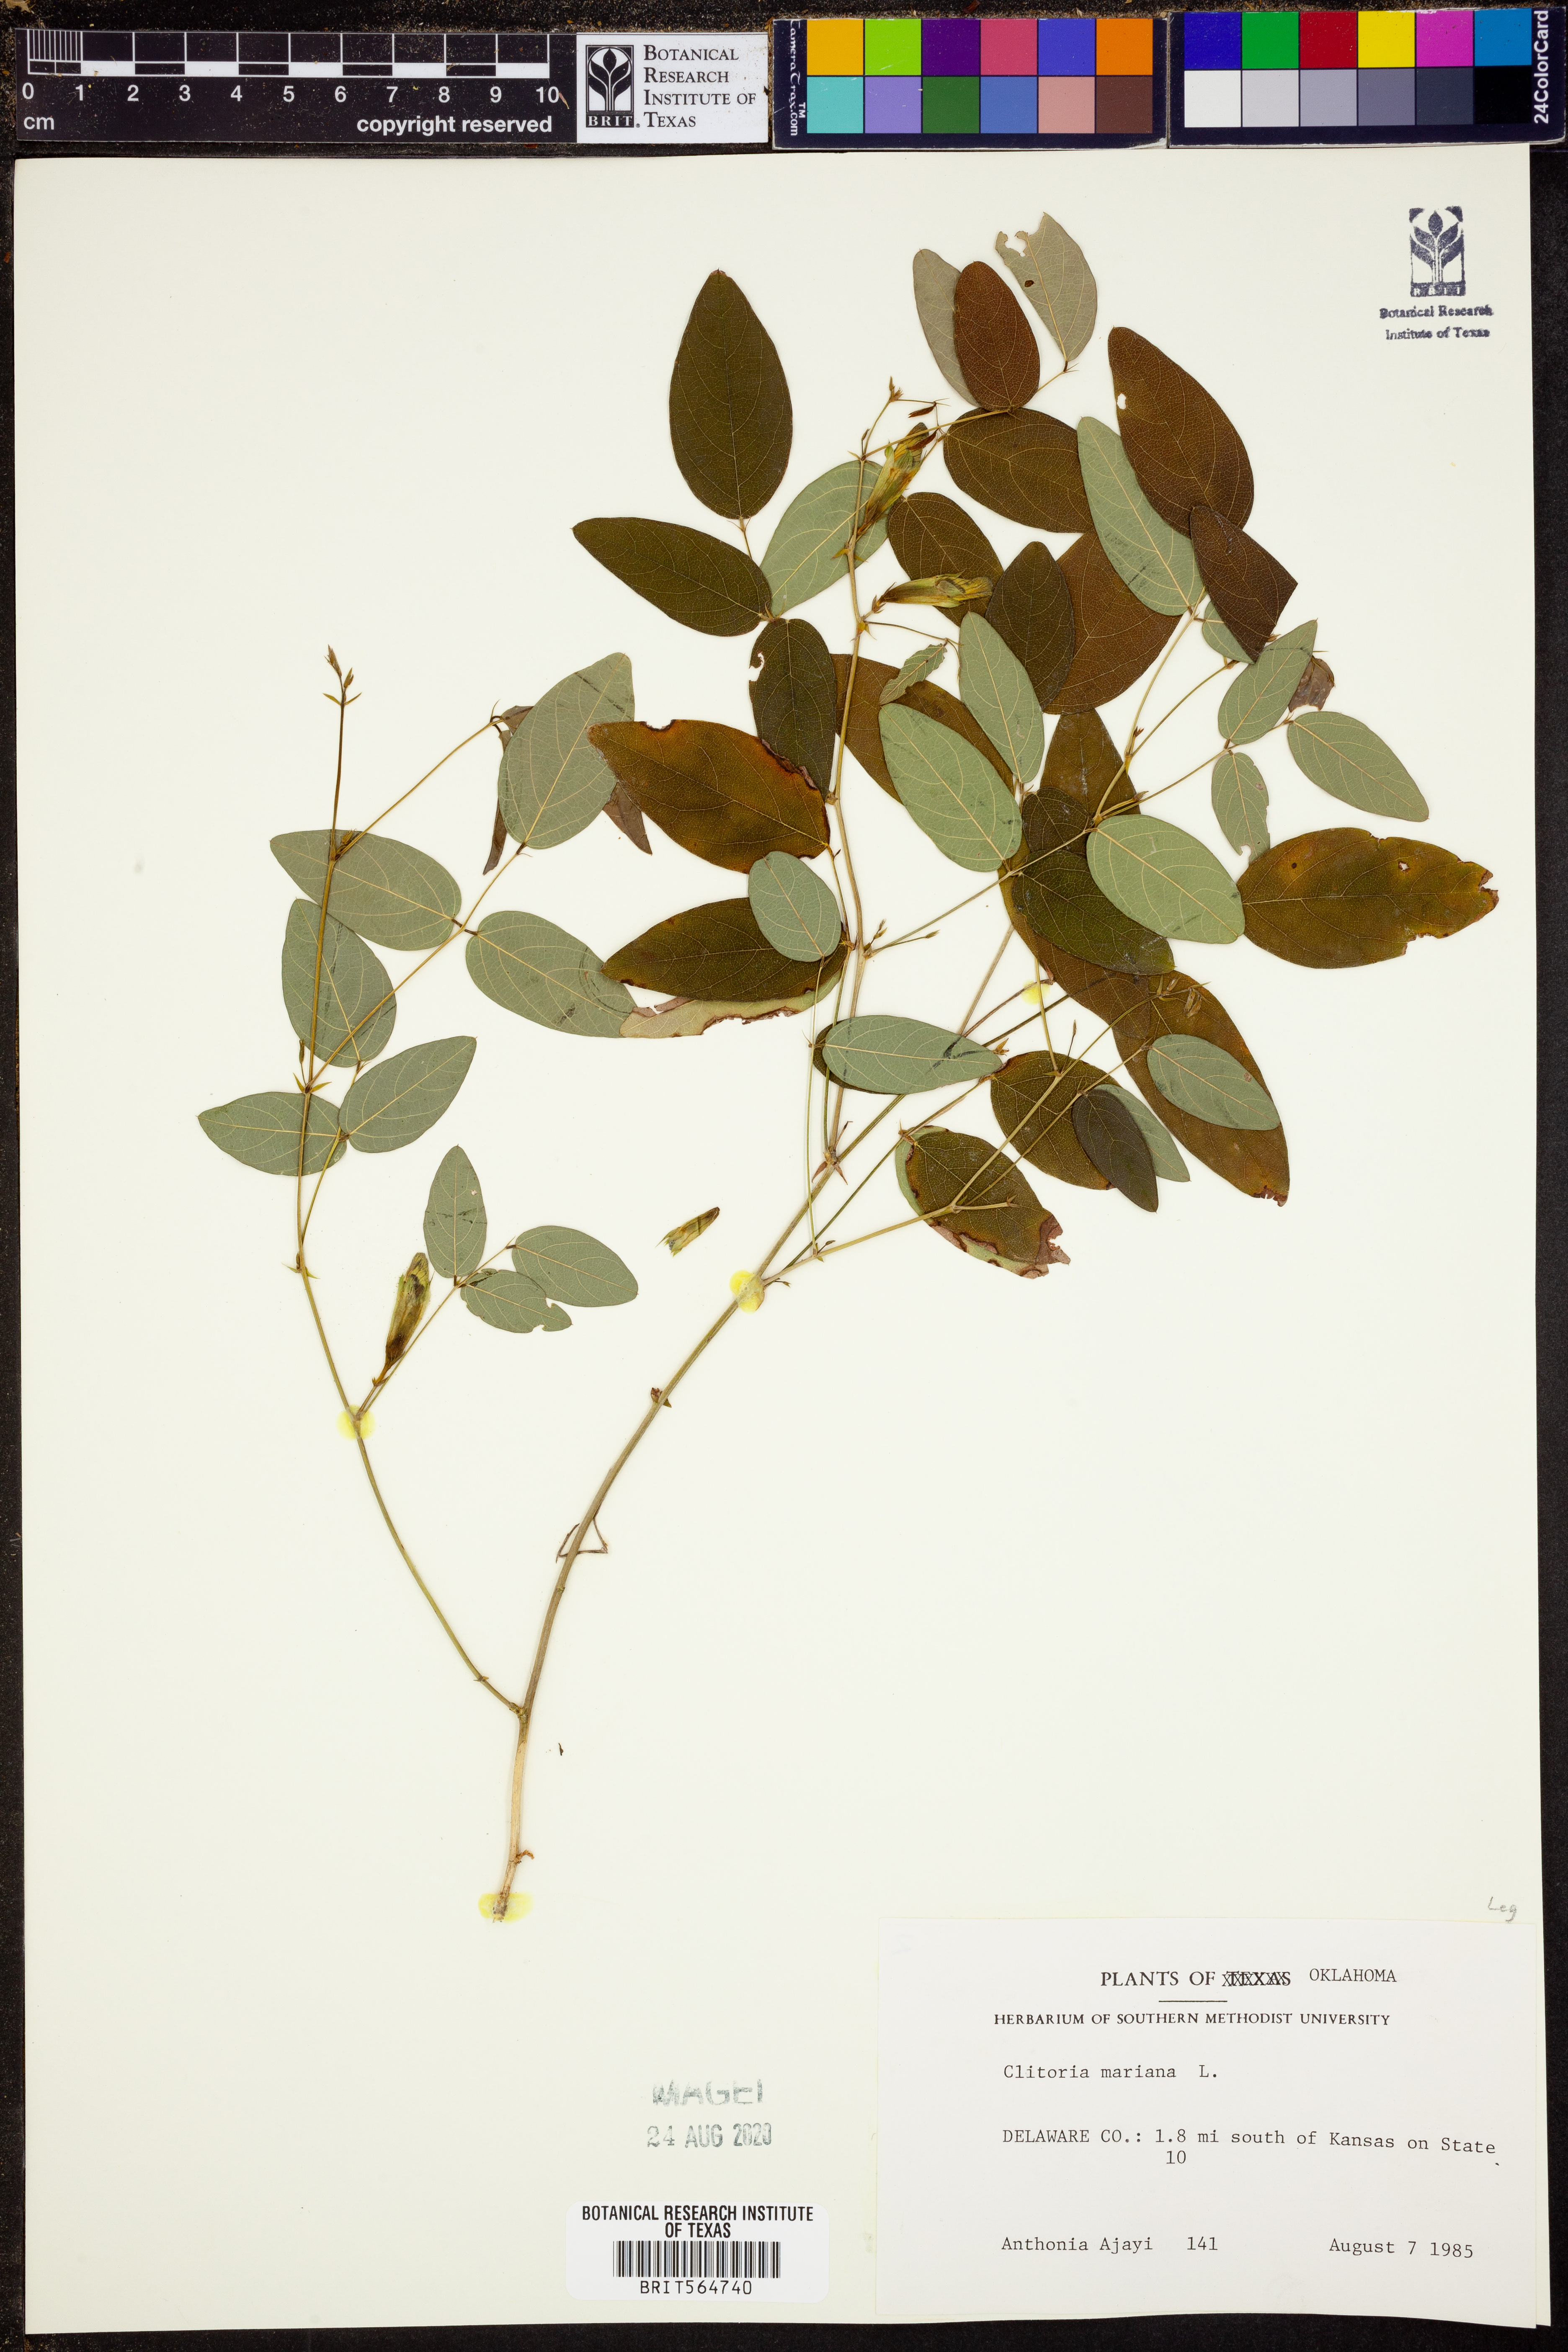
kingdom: Plantae
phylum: Tracheophyta
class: Magnoliopsida
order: Fabales
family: Fabaceae
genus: Clitoria
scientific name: Clitoria mariana
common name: Butterfly-pea
